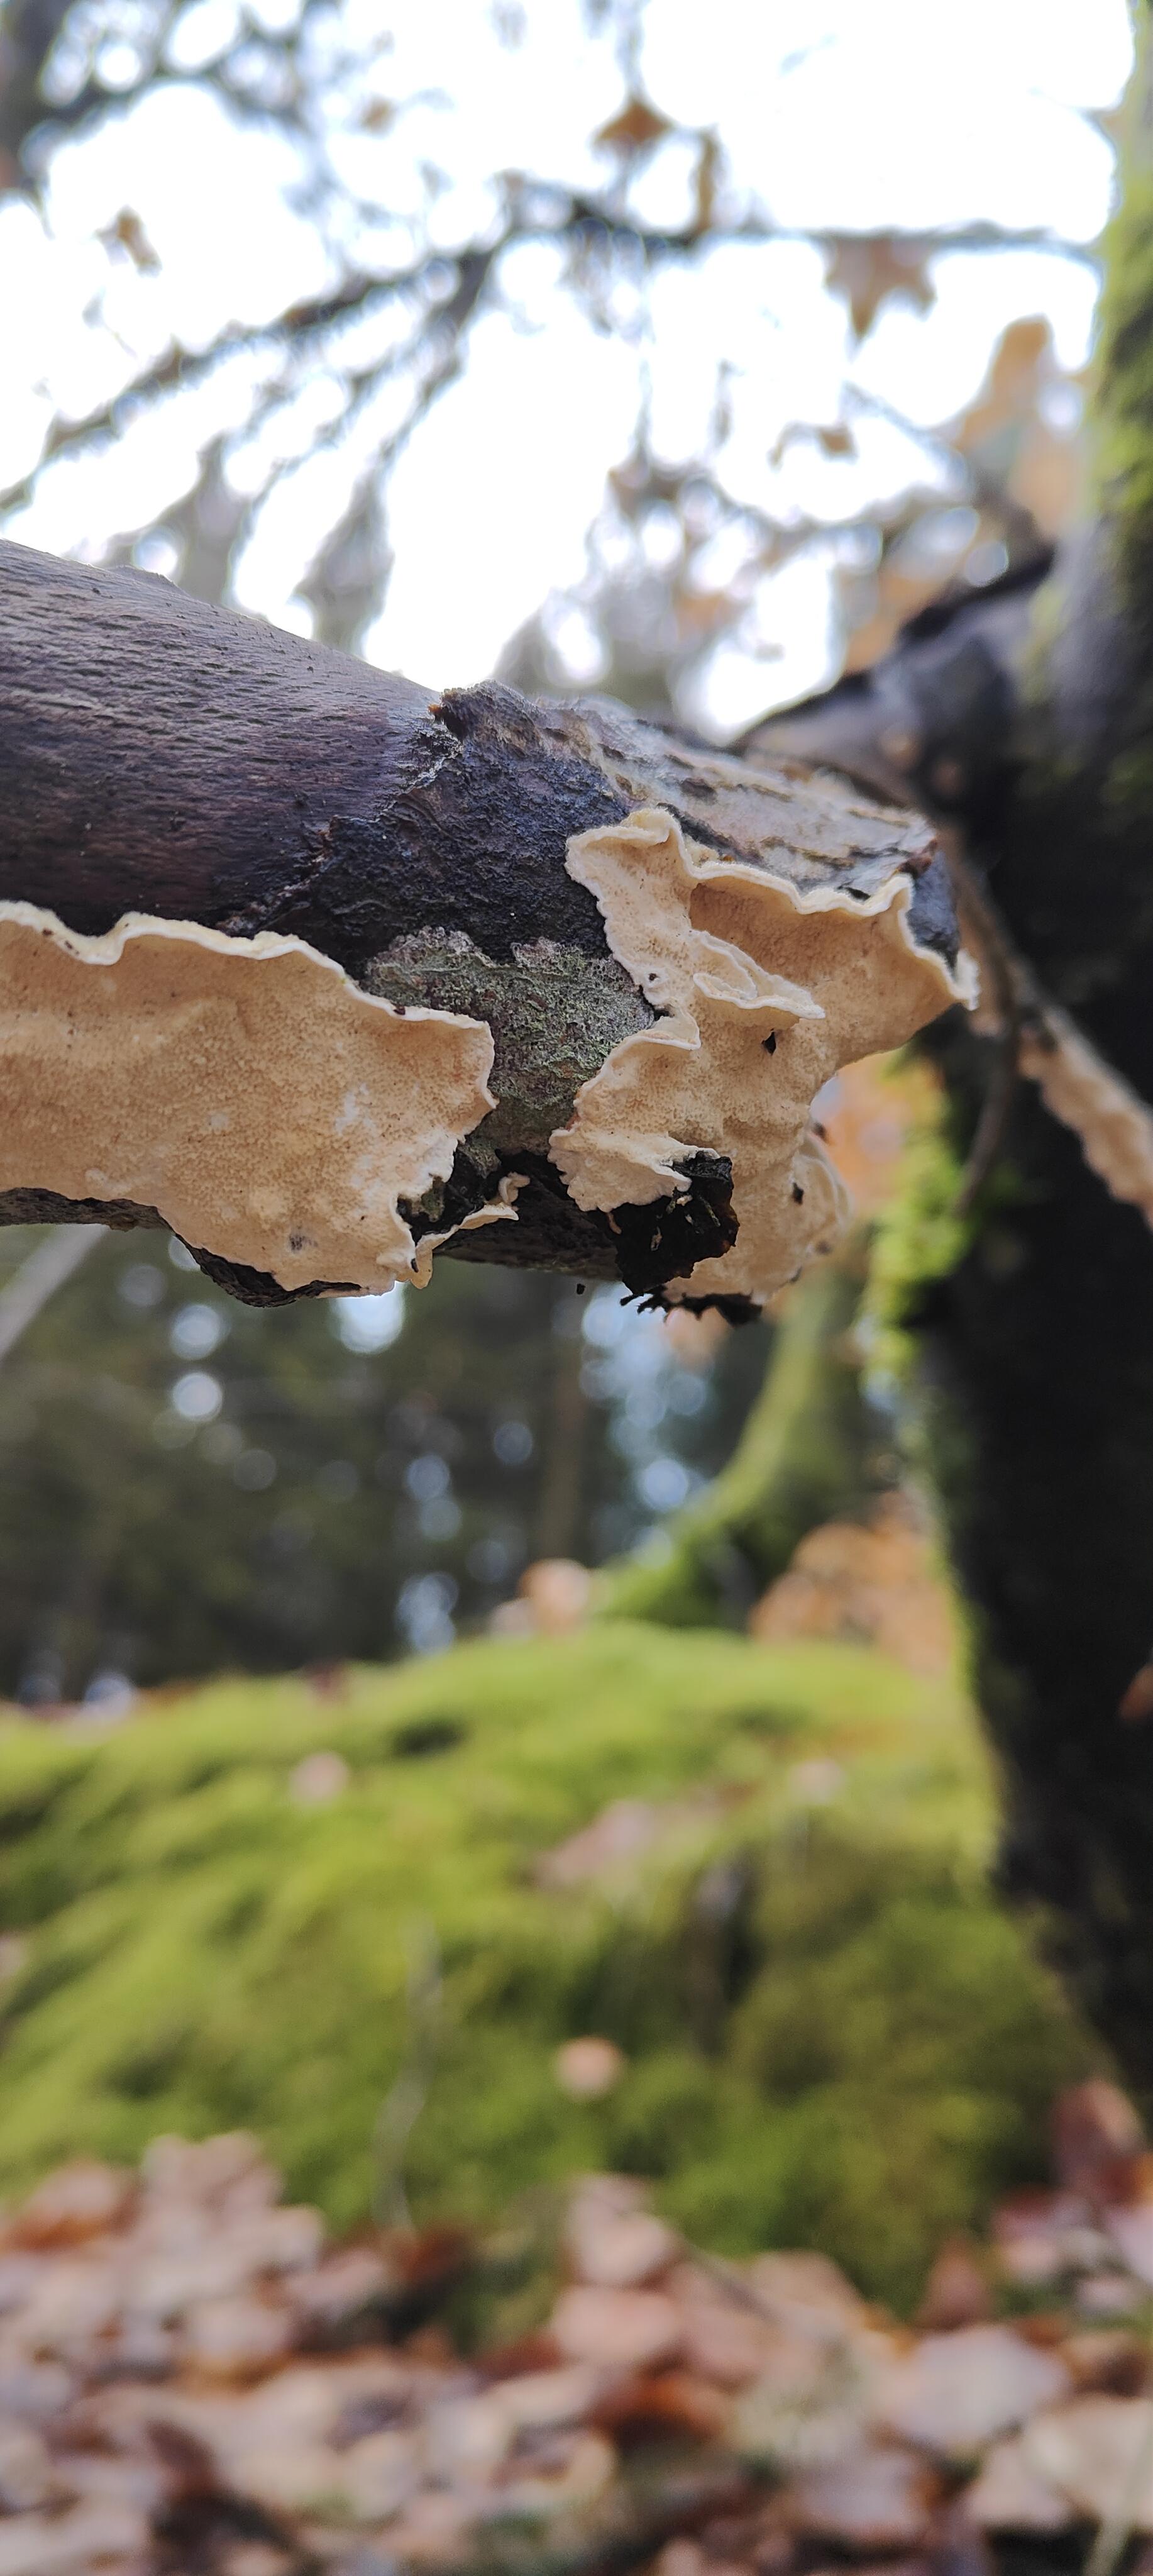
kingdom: Fungi
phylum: Basidiomycota
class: Agaricomycetes
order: Polyporales
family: Irpicaceae
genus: Byssomerulius
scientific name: Byssomerulius corium
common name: læder-åresvamp
